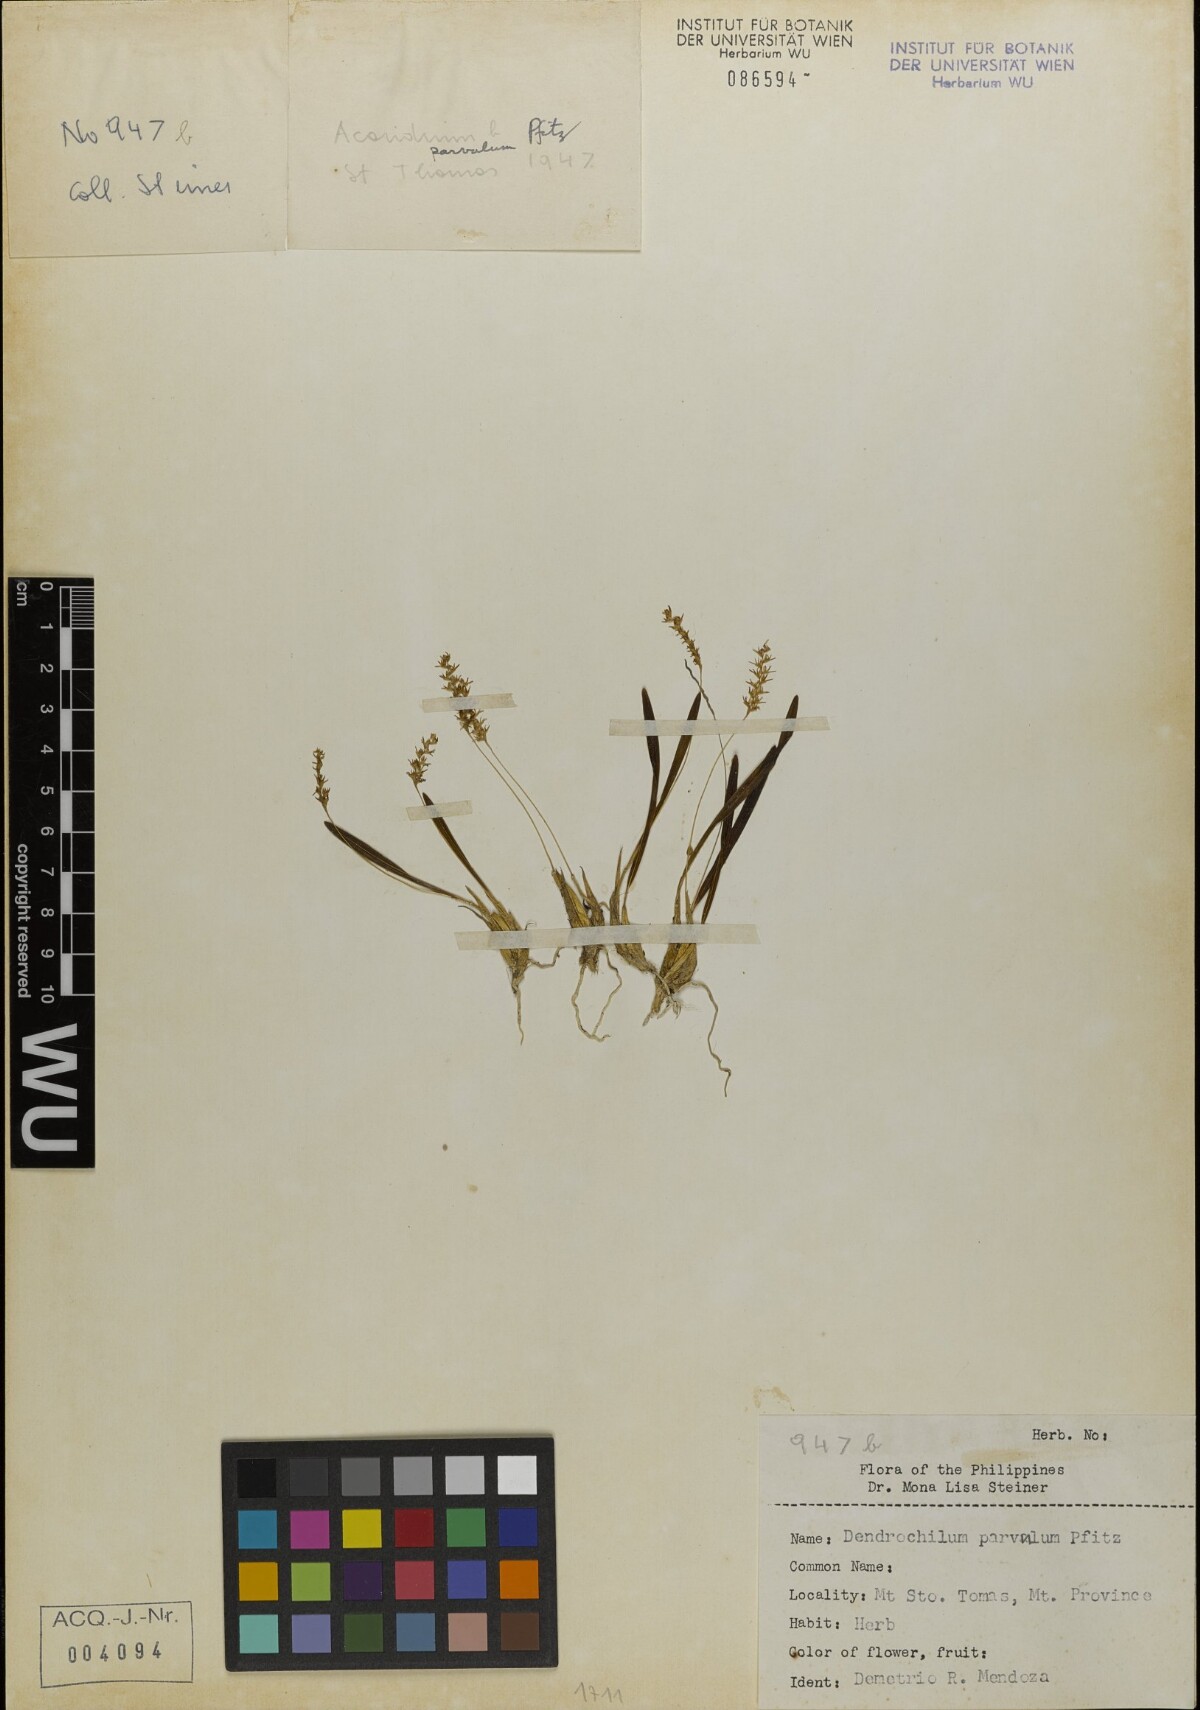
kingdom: Plantae
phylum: Tracheophyta
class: Liliopsida
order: Asparagales
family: Orchidaceae
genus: Coelogyne
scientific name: Coelogyne parvula
